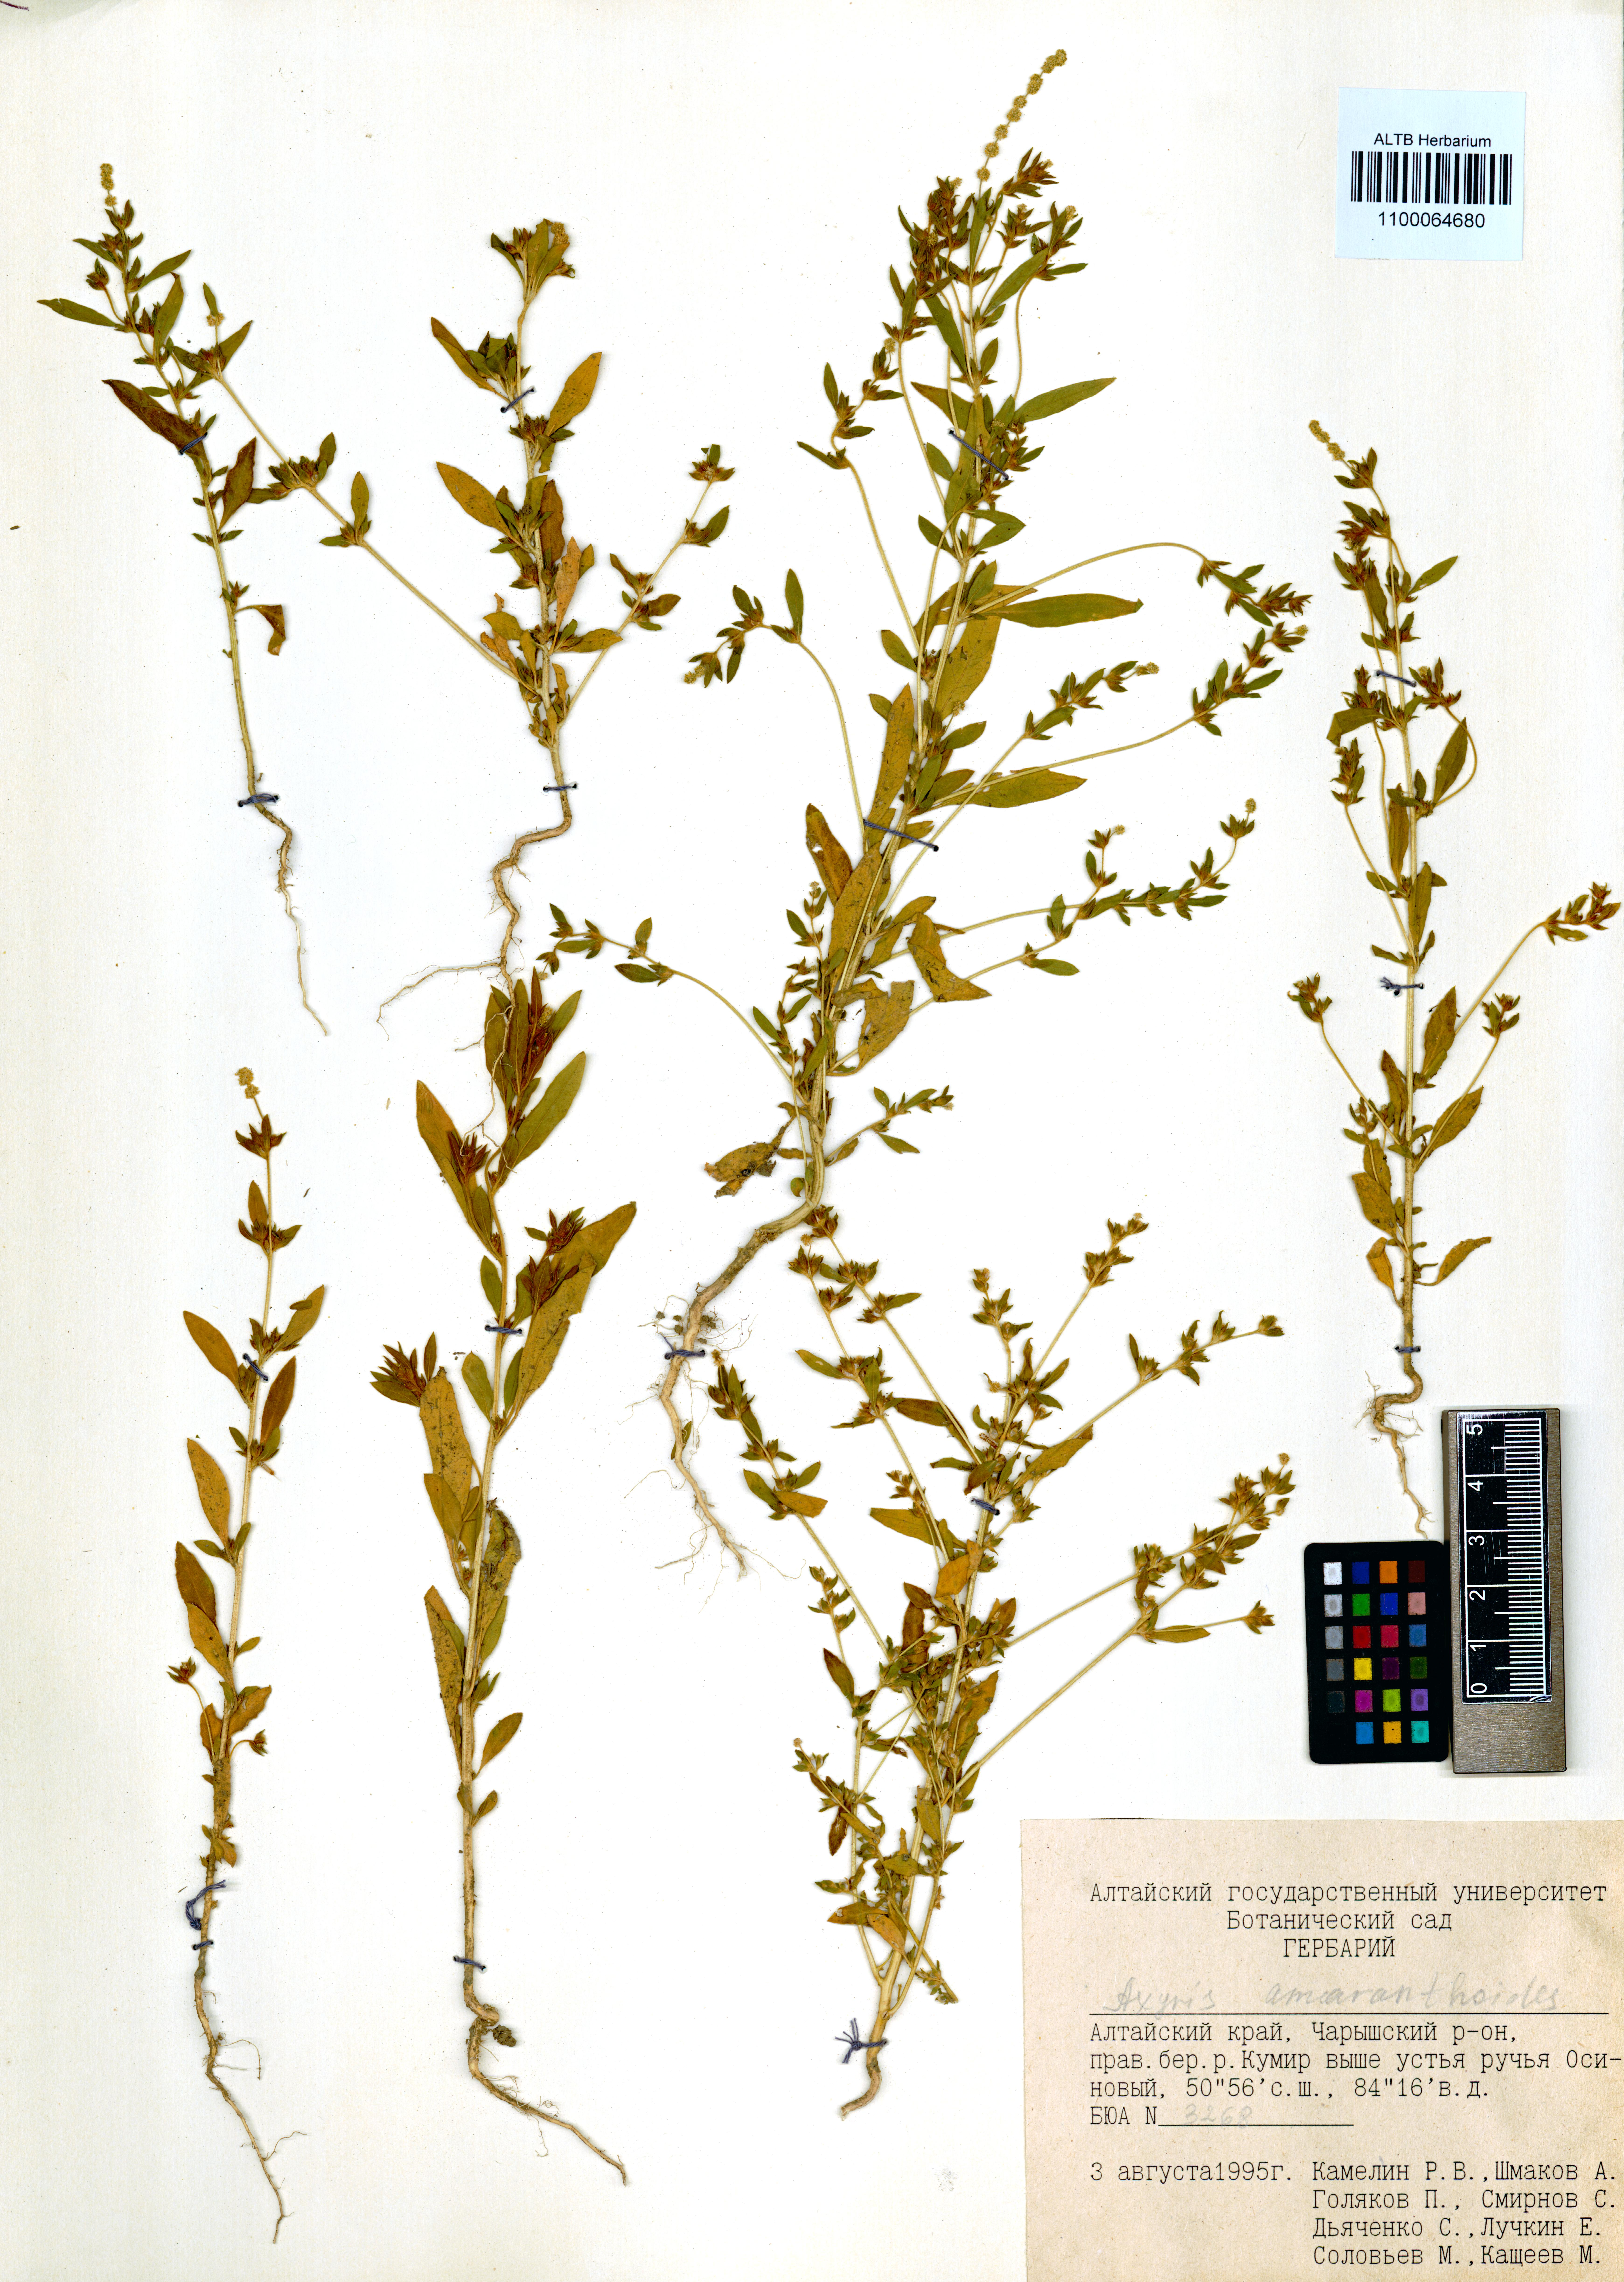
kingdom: Plantae
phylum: Tracheophyta
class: Magnoliopsida
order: Caryophyllales
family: Amaranthaceae
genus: Axyris
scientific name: Axyris amaranthoides
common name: Russian pigweed
